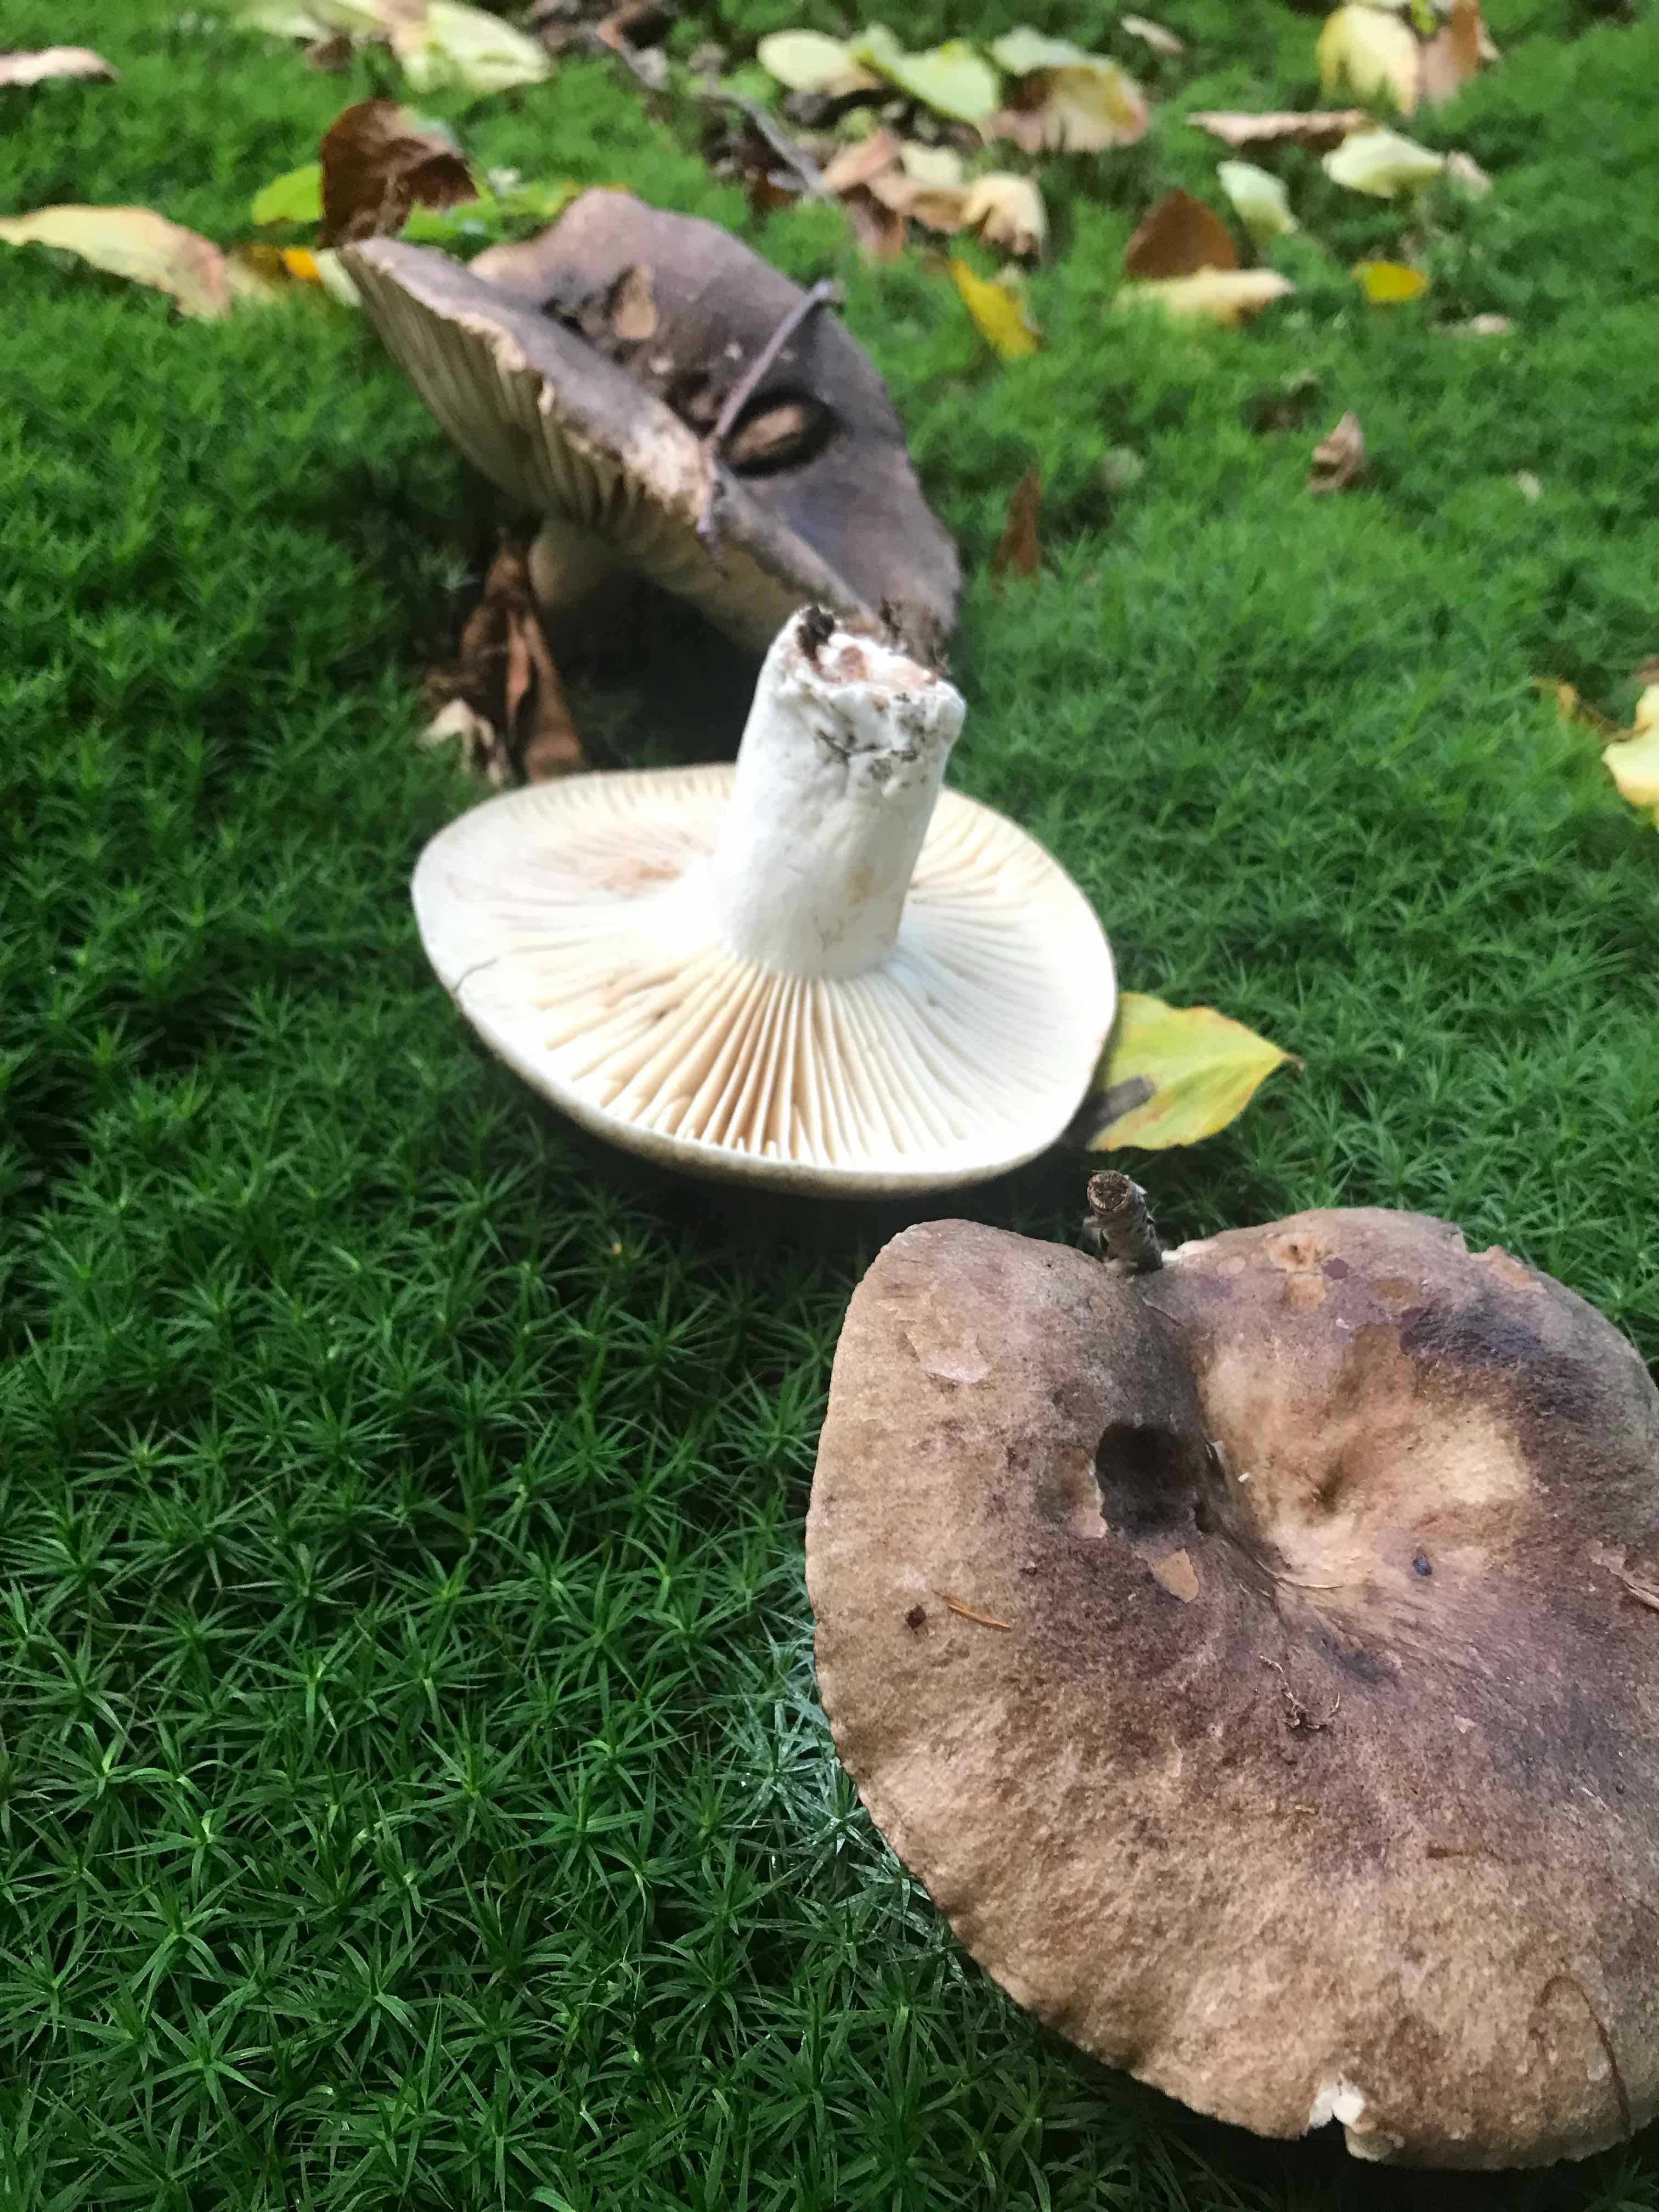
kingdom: Fungi
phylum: Basidiomycota
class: Agaricomycetes
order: Russulales
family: Russulaceae
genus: Russula
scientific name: Russula adusta
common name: sværtende skørhat
